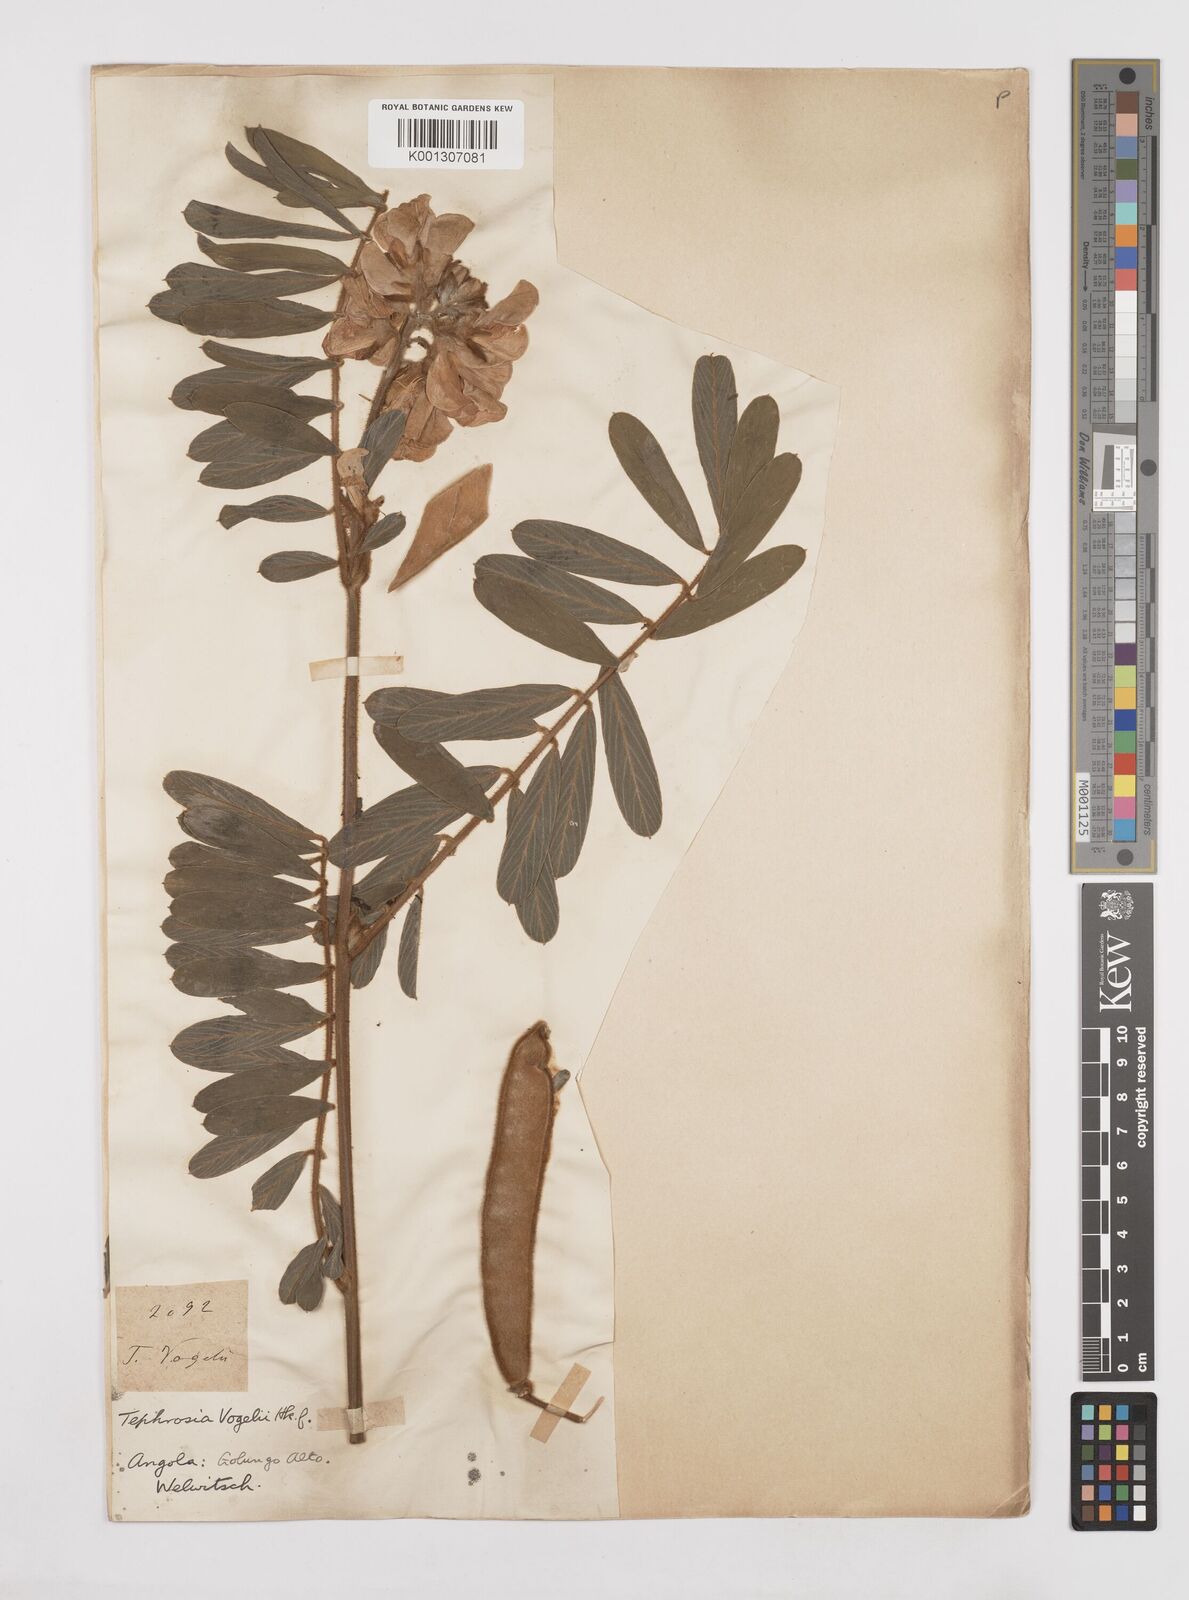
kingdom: Plantae
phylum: Tracheophyta
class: Magnoliopsida
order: Fabales
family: Fabaceae
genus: Tephrosia
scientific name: Tephrosia vogelii
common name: Vogel tephrosia
